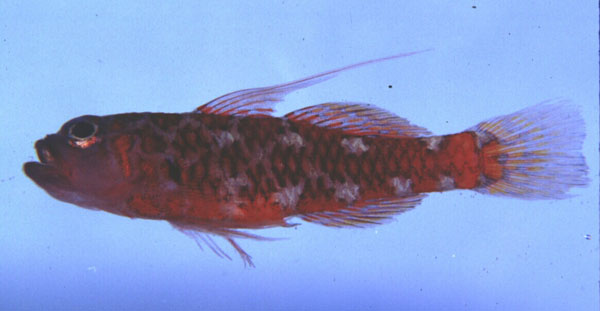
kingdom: Animalia
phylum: Chordata
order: Perciformes
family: Gobiidae
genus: Trimma
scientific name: Trimma naudei
